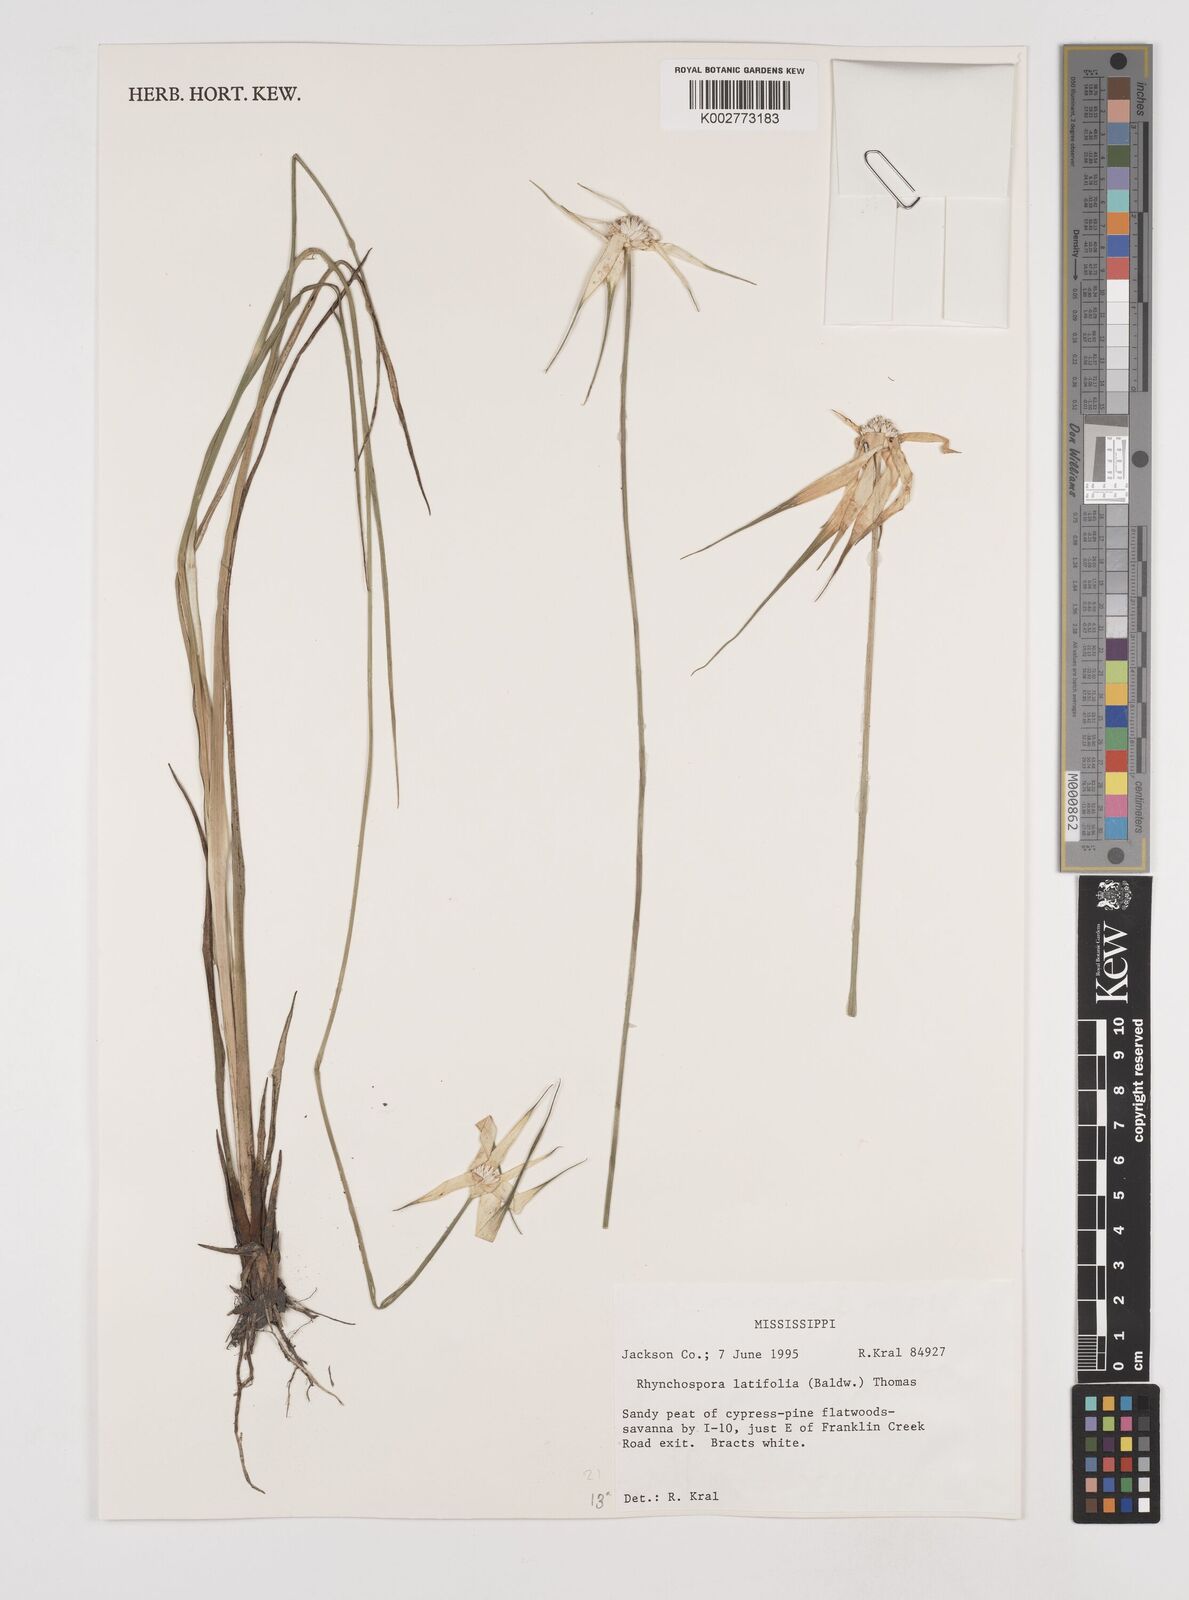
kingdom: Plantae
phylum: Tracheophyta
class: Liliopsida
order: Poales
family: Cyperaceae
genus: Rhynchospora
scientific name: Rhynchospora latifolia
